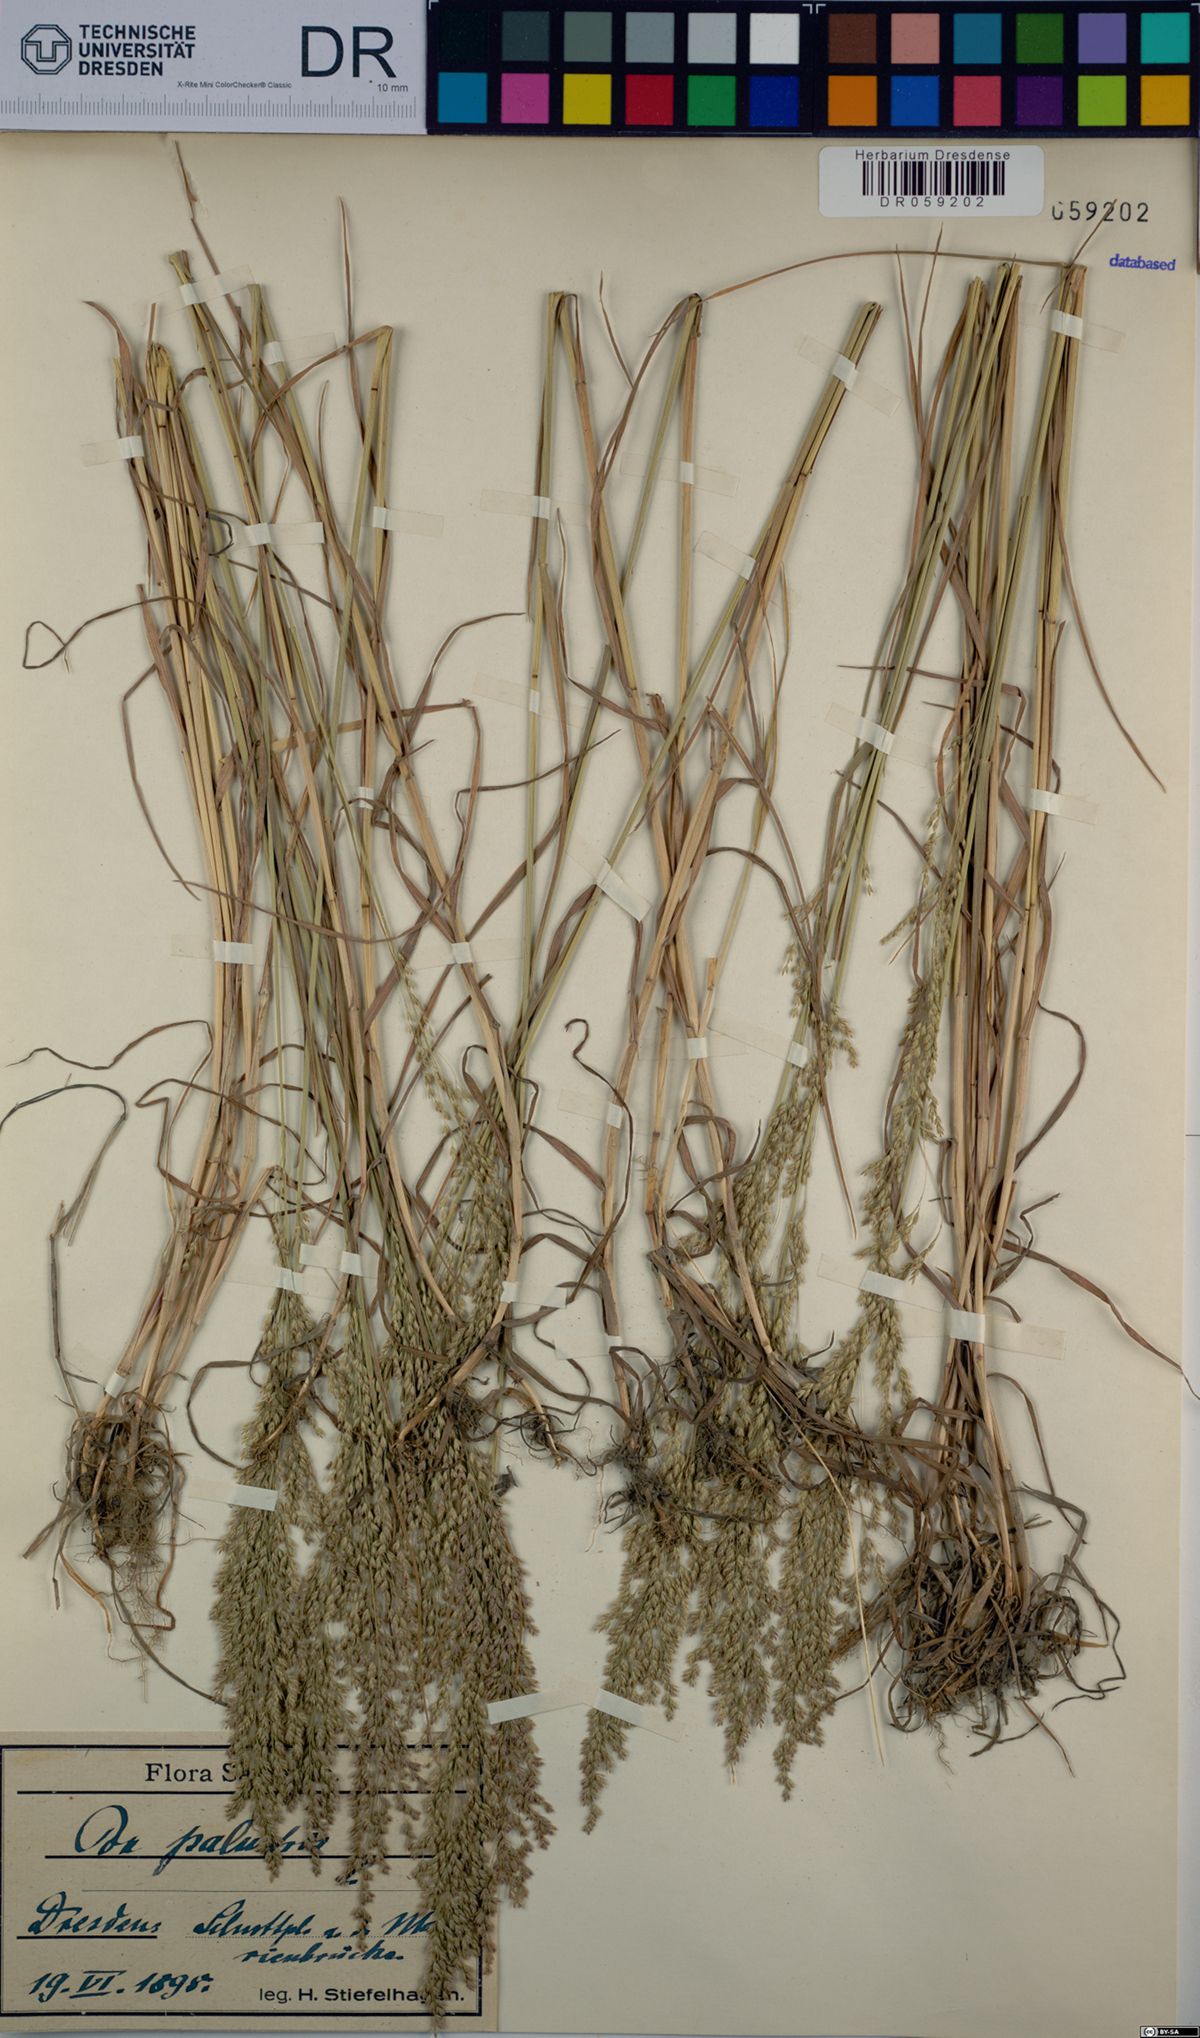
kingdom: Plantae
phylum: Tracheophyta
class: Liliopsida
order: Poales
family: Poaceae
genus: Poa
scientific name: Poa palustris
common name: Swamp meadow-grass
